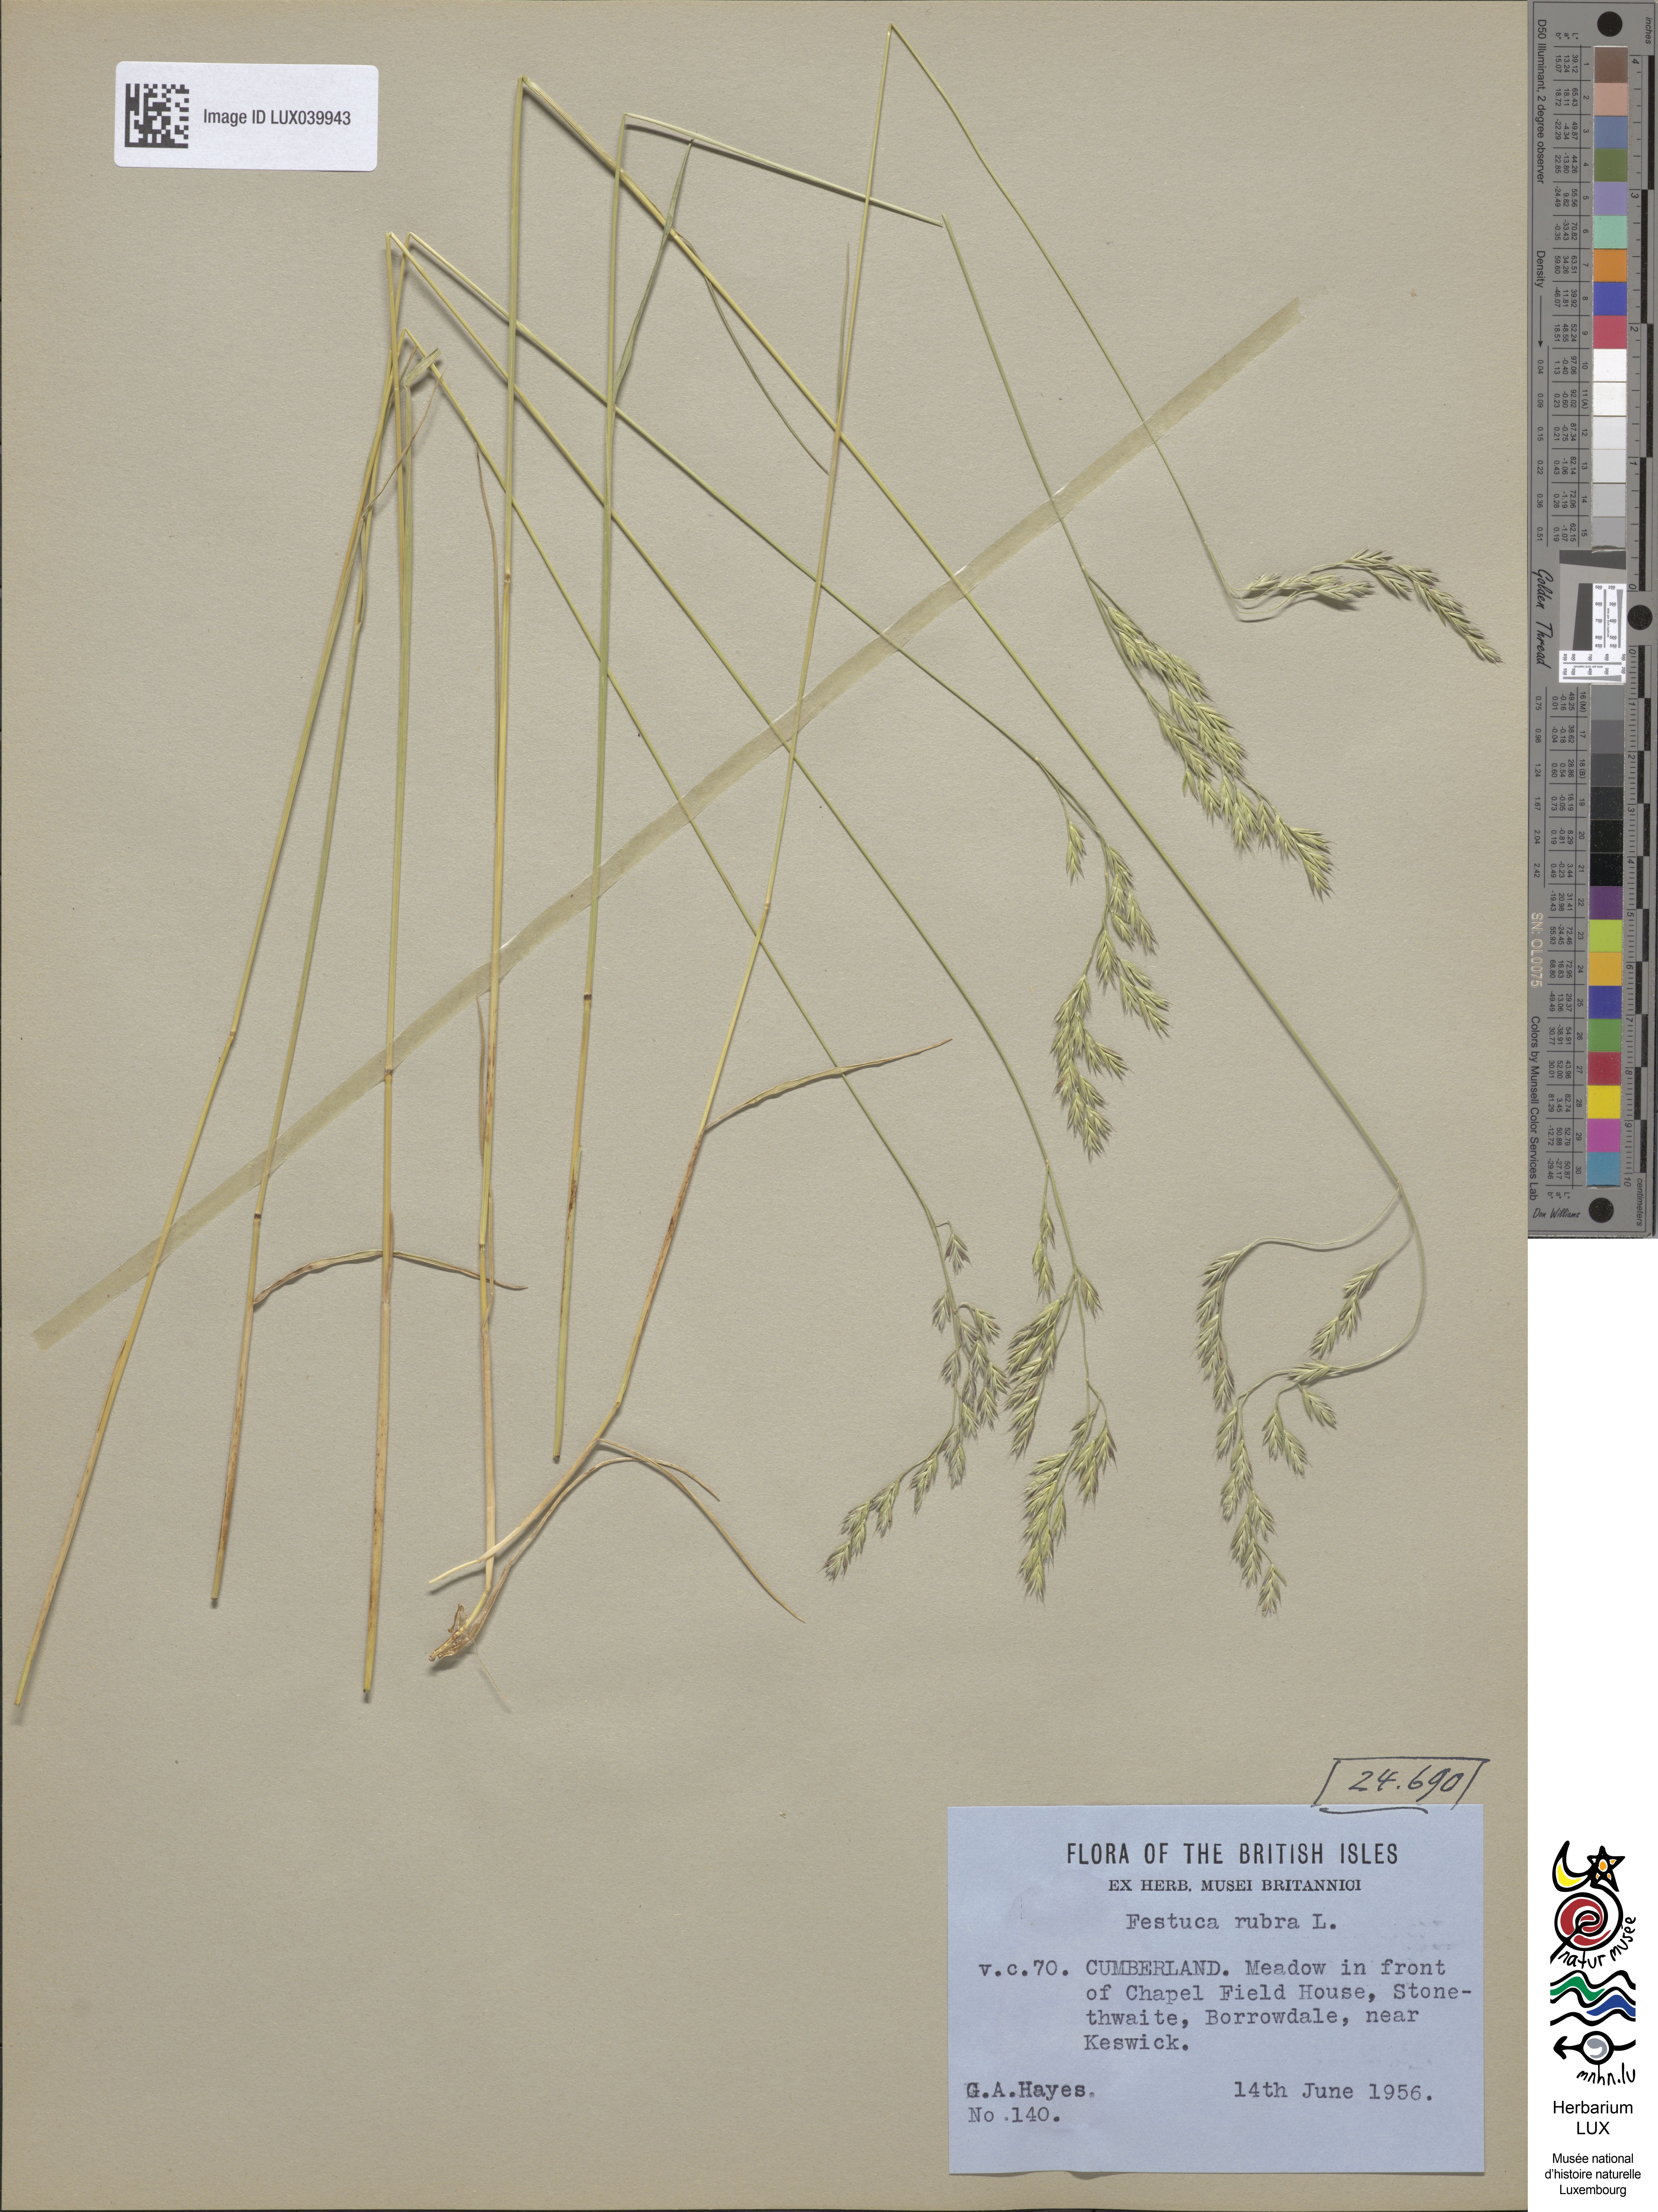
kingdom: Plantae
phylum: Tracheophyta
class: Liliopsida
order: Poales
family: Poaceae
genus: Festuca
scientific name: Festuca rubra
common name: Red fescue
